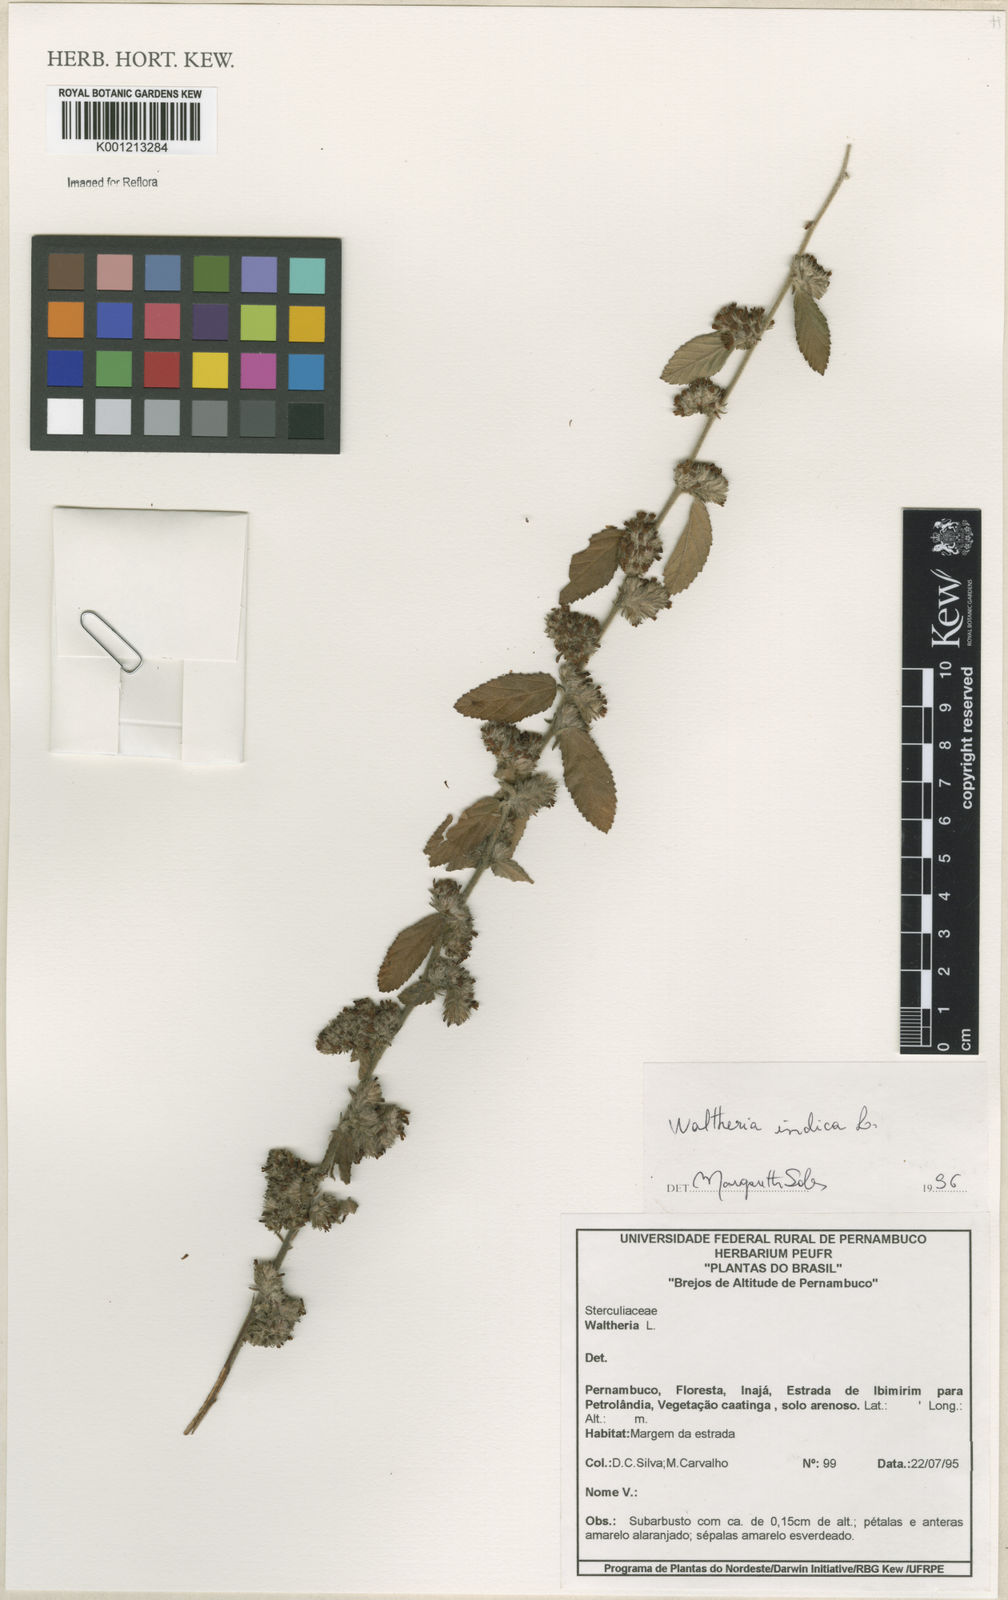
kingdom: Plantae
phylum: Tracheophyta
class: Magnoliopsida
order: Malvales
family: Malvaceae
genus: Waltheria
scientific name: Waltheria indica
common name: Leather-coat
